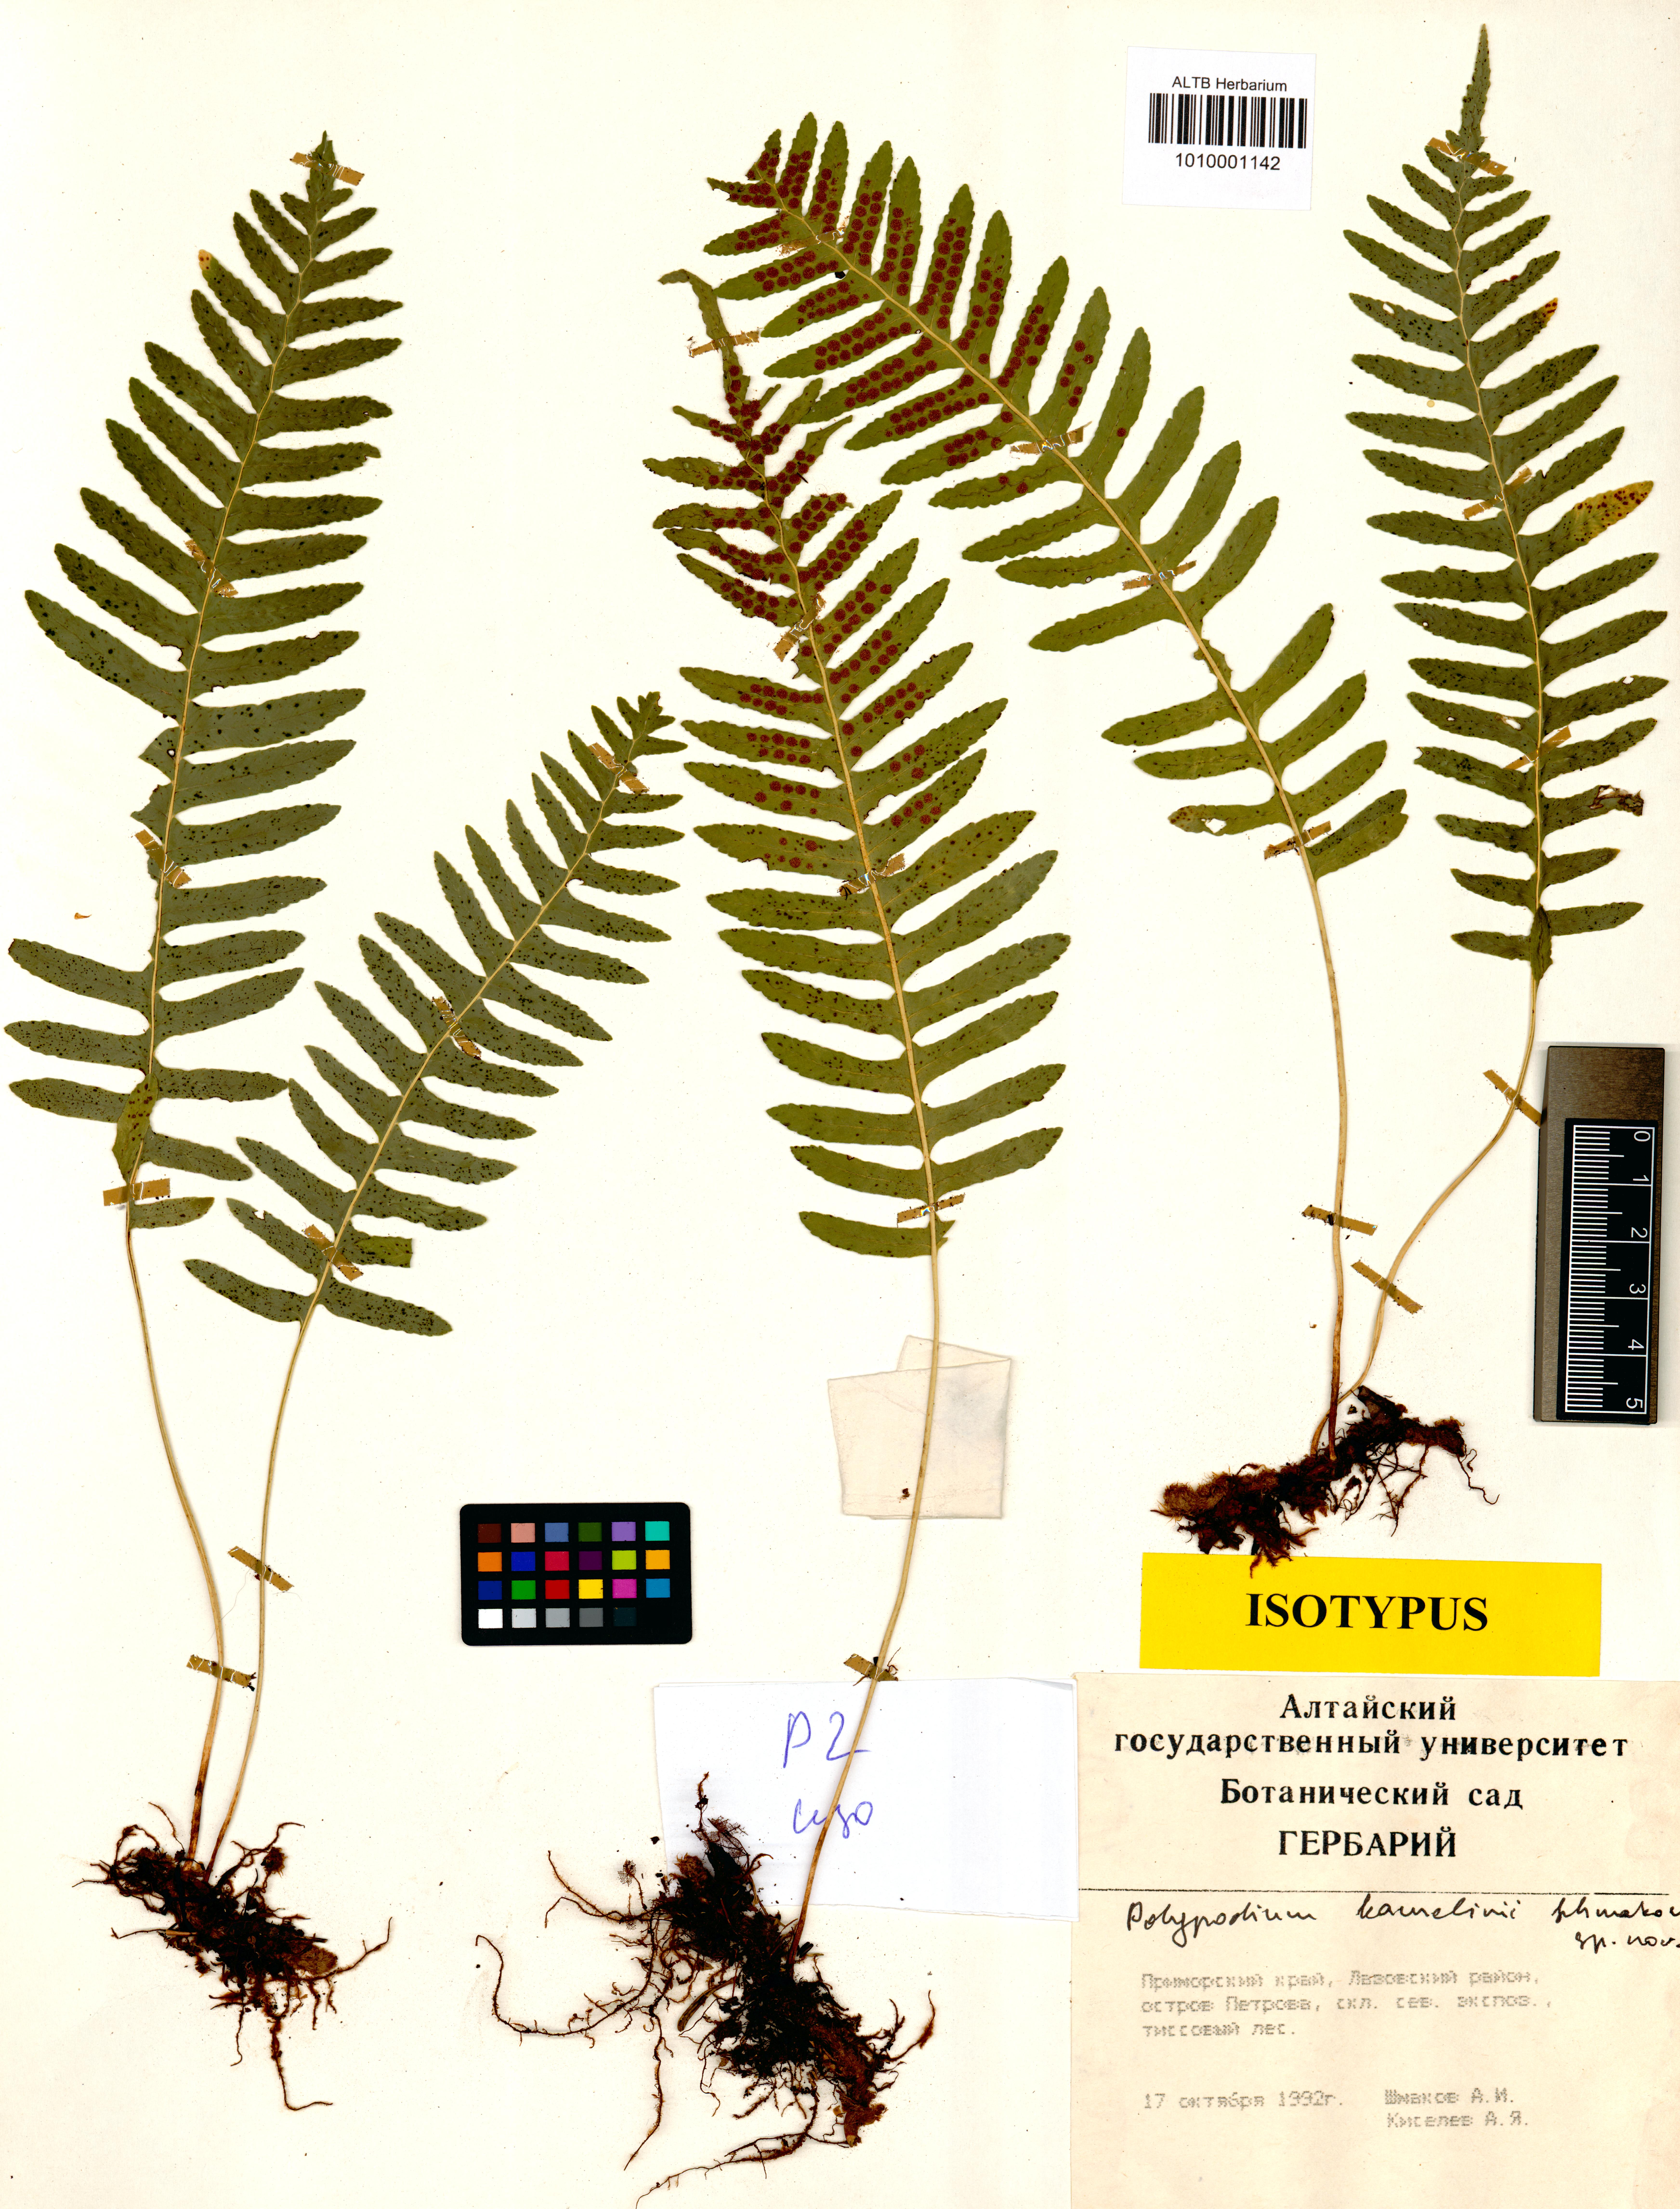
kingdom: Plantae
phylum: Tracheophyta
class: Polypodiopsida
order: Polypodiales
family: Polypodiaceae
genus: Polypodium
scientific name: Polypodium kamelinii
